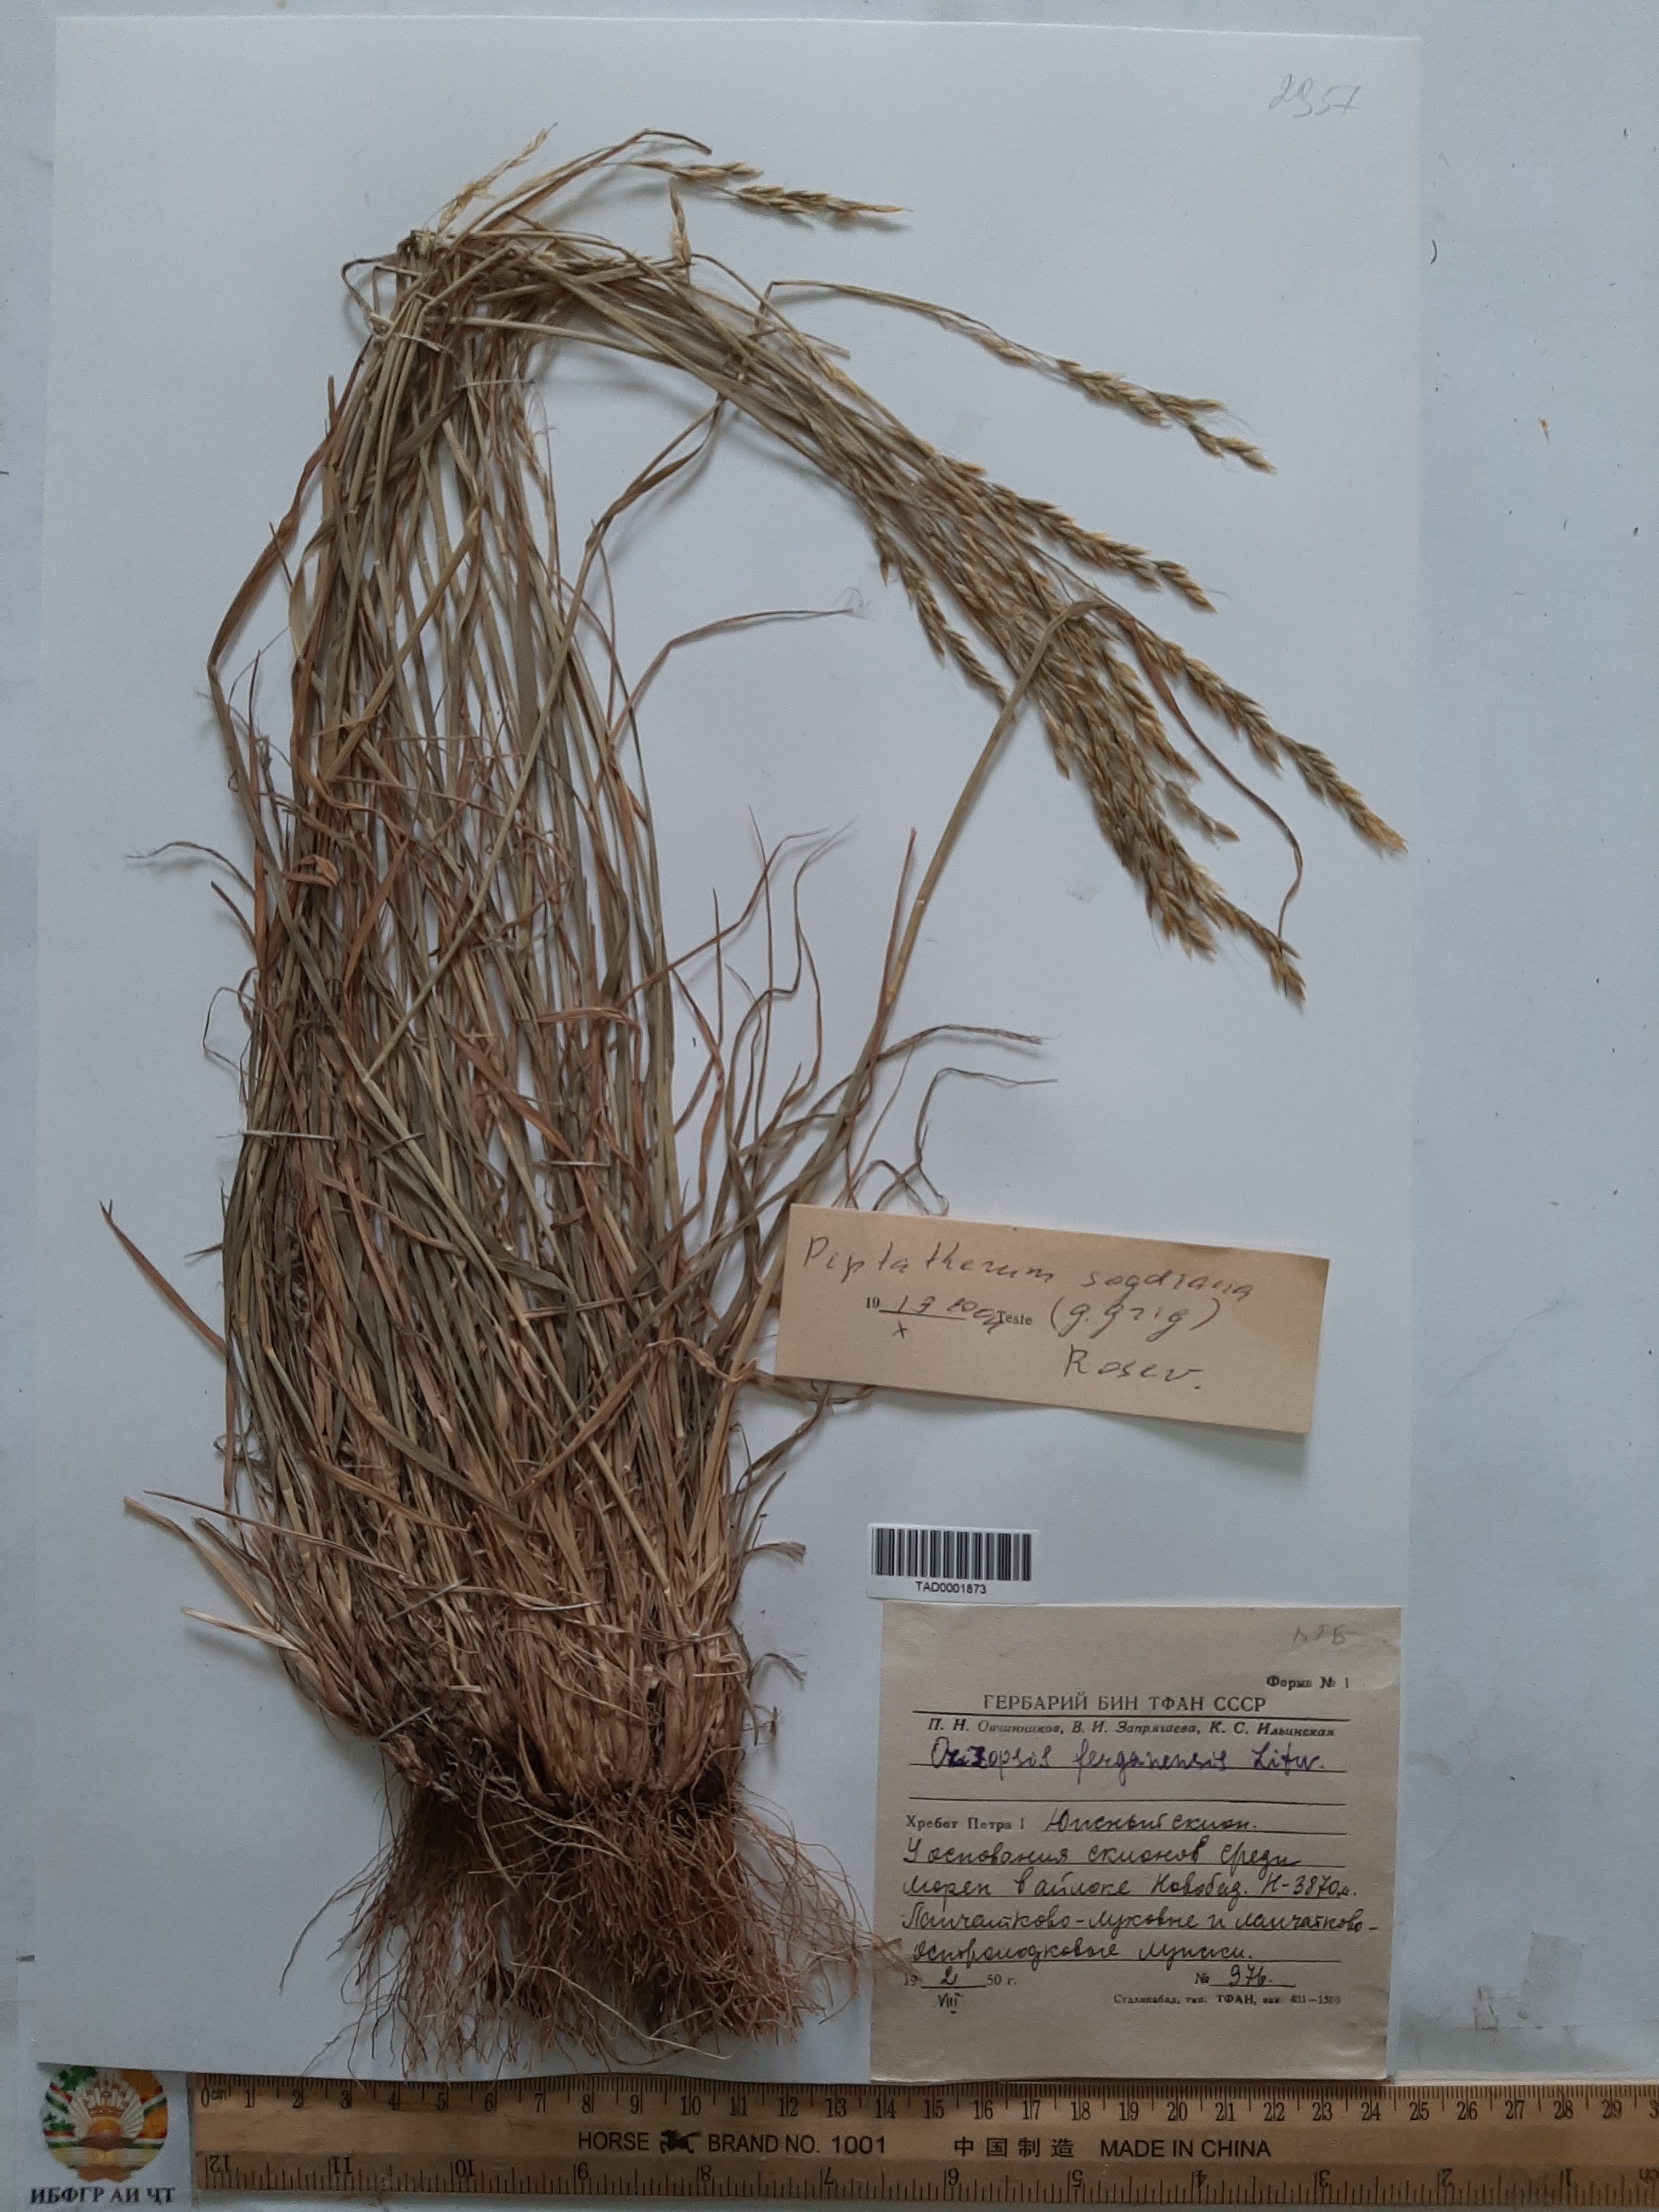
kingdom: Plantae
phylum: Tracheophyta
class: Liliopsida
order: Poales
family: Poaceae
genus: Piptatherum
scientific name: Piptatherum sogdianum
